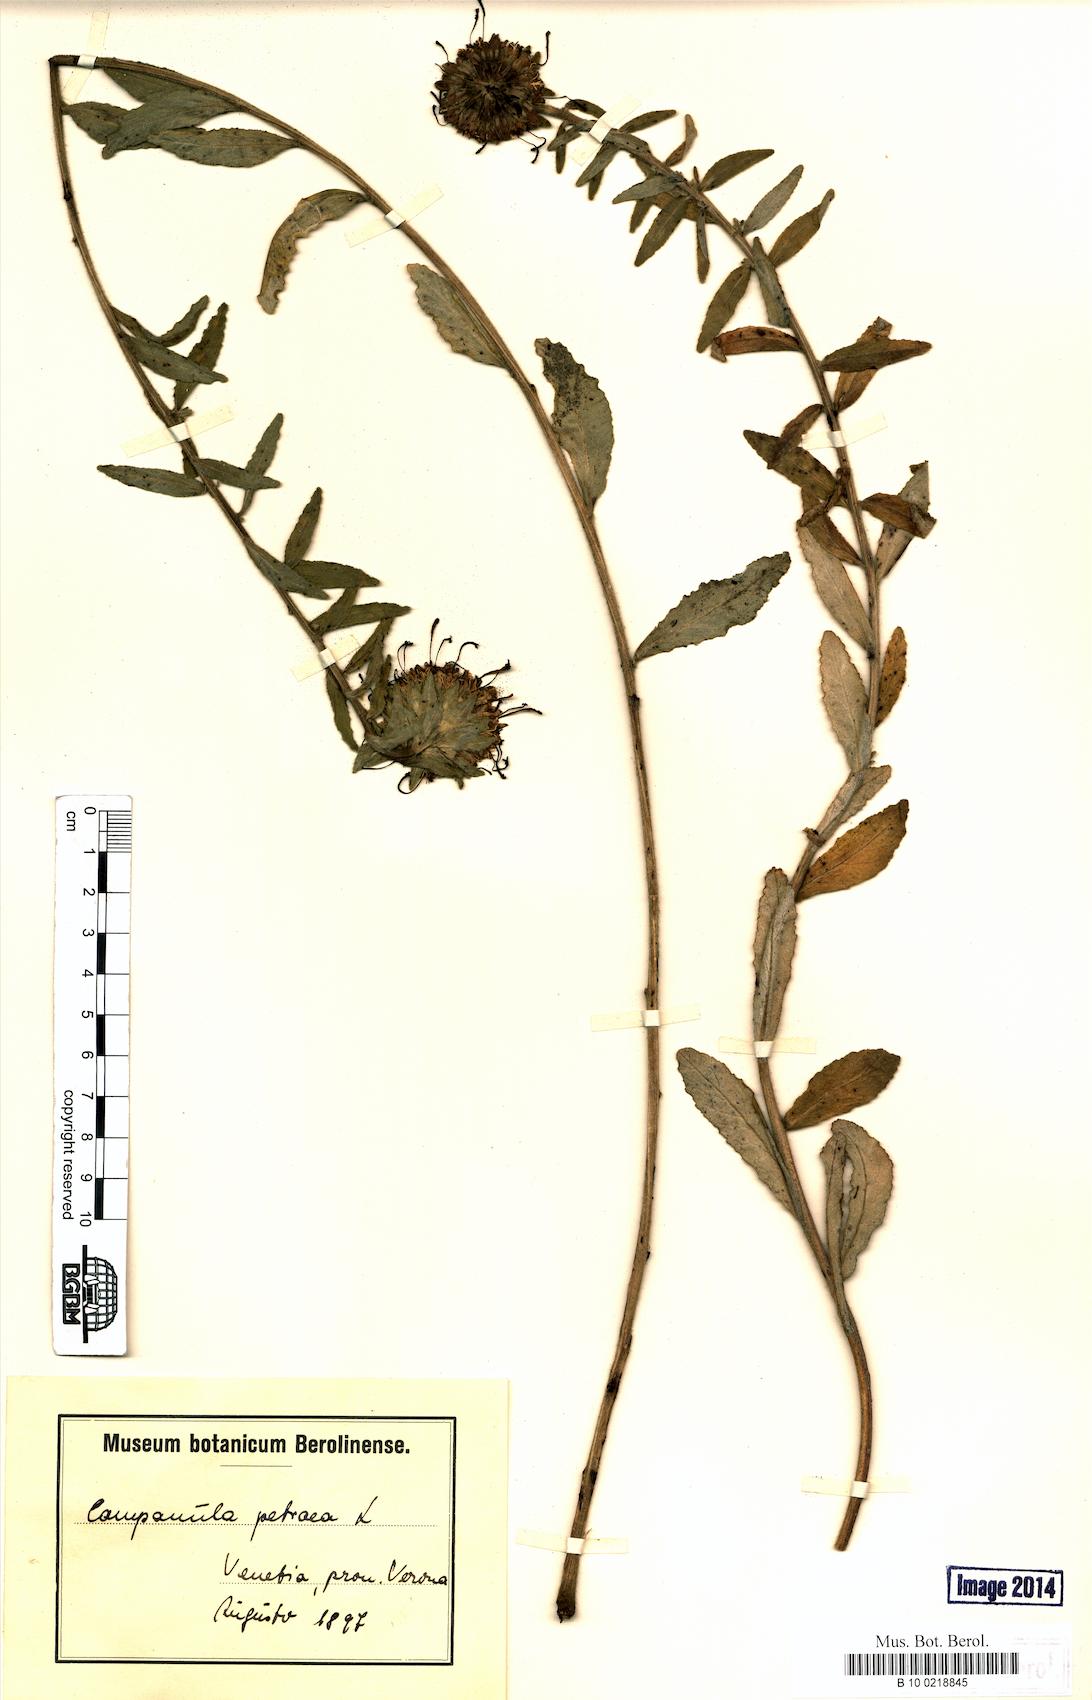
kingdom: Plantae
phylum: Tracheophyta
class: Magnoliopsida
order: Asterales
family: Campanulaceae
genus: Campanula
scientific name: Campanula petraea
